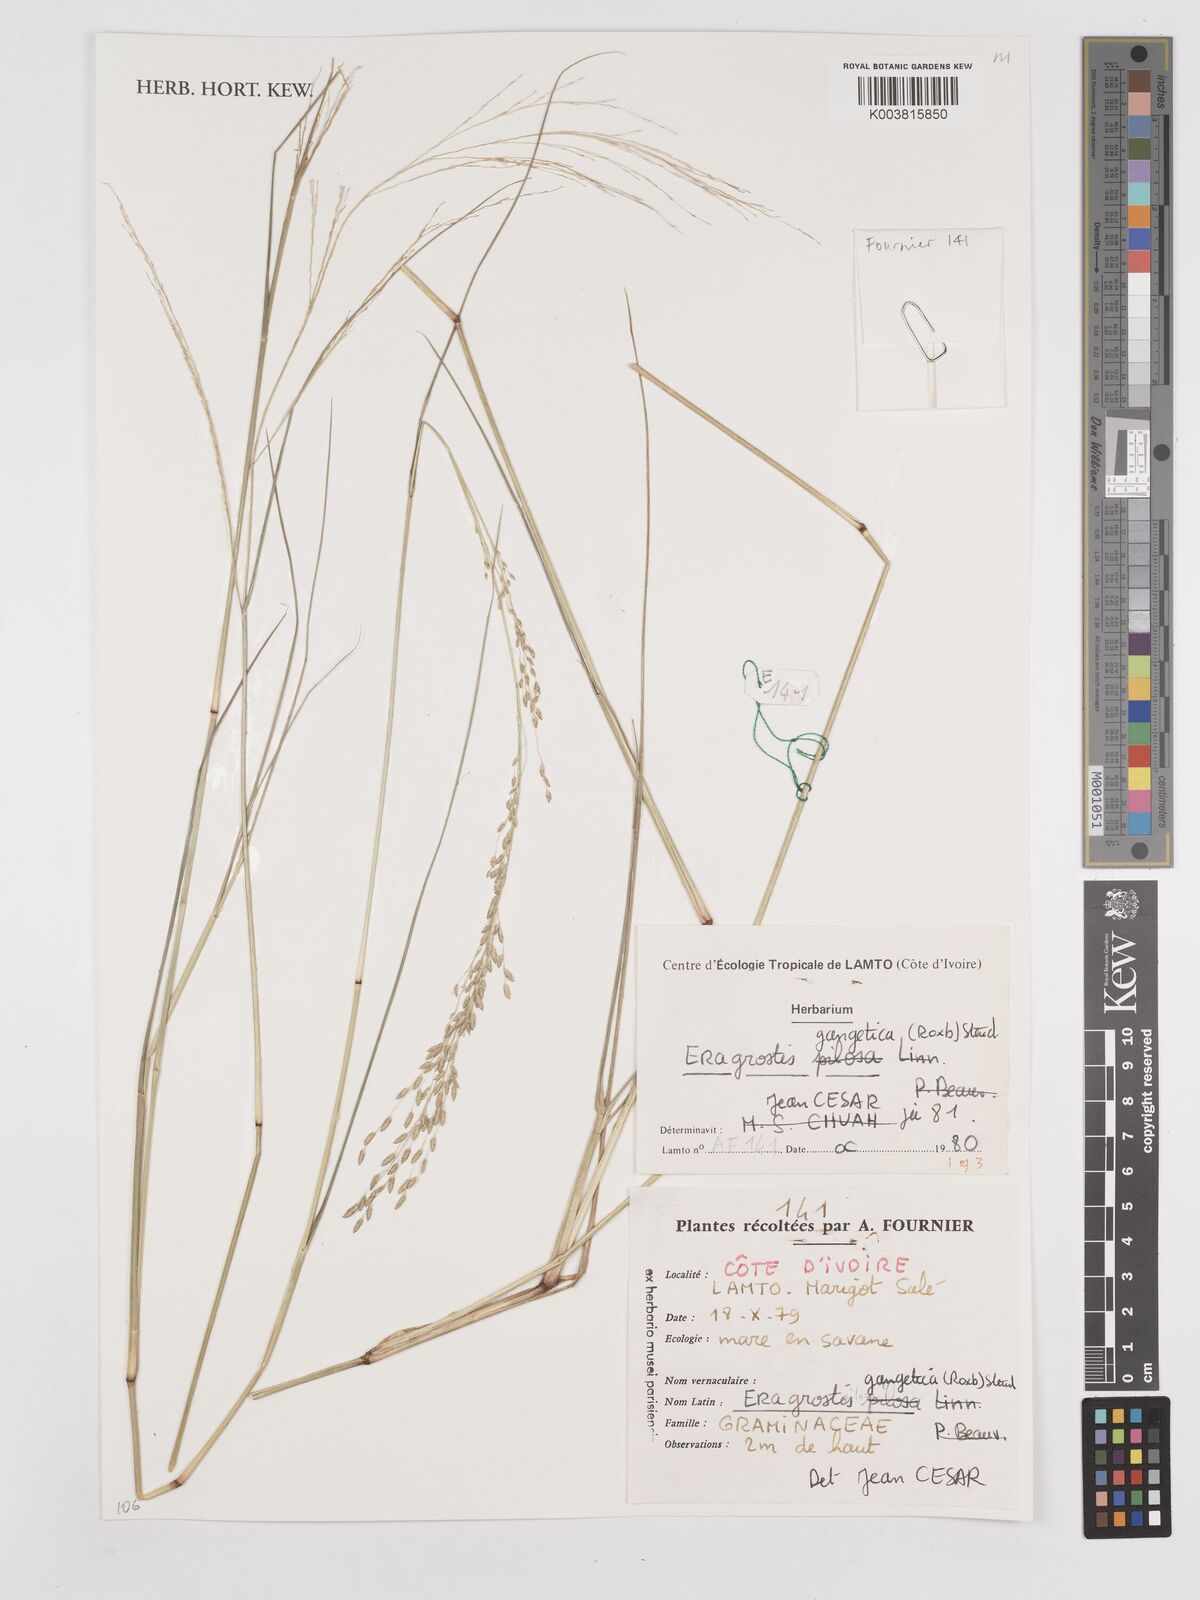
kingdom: Plantae
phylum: Tracheophyta
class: Liliopsida
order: Poales
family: Poaceae
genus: Eragrostis
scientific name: Eragrostis gangetica
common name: Slimflower lovegrass
